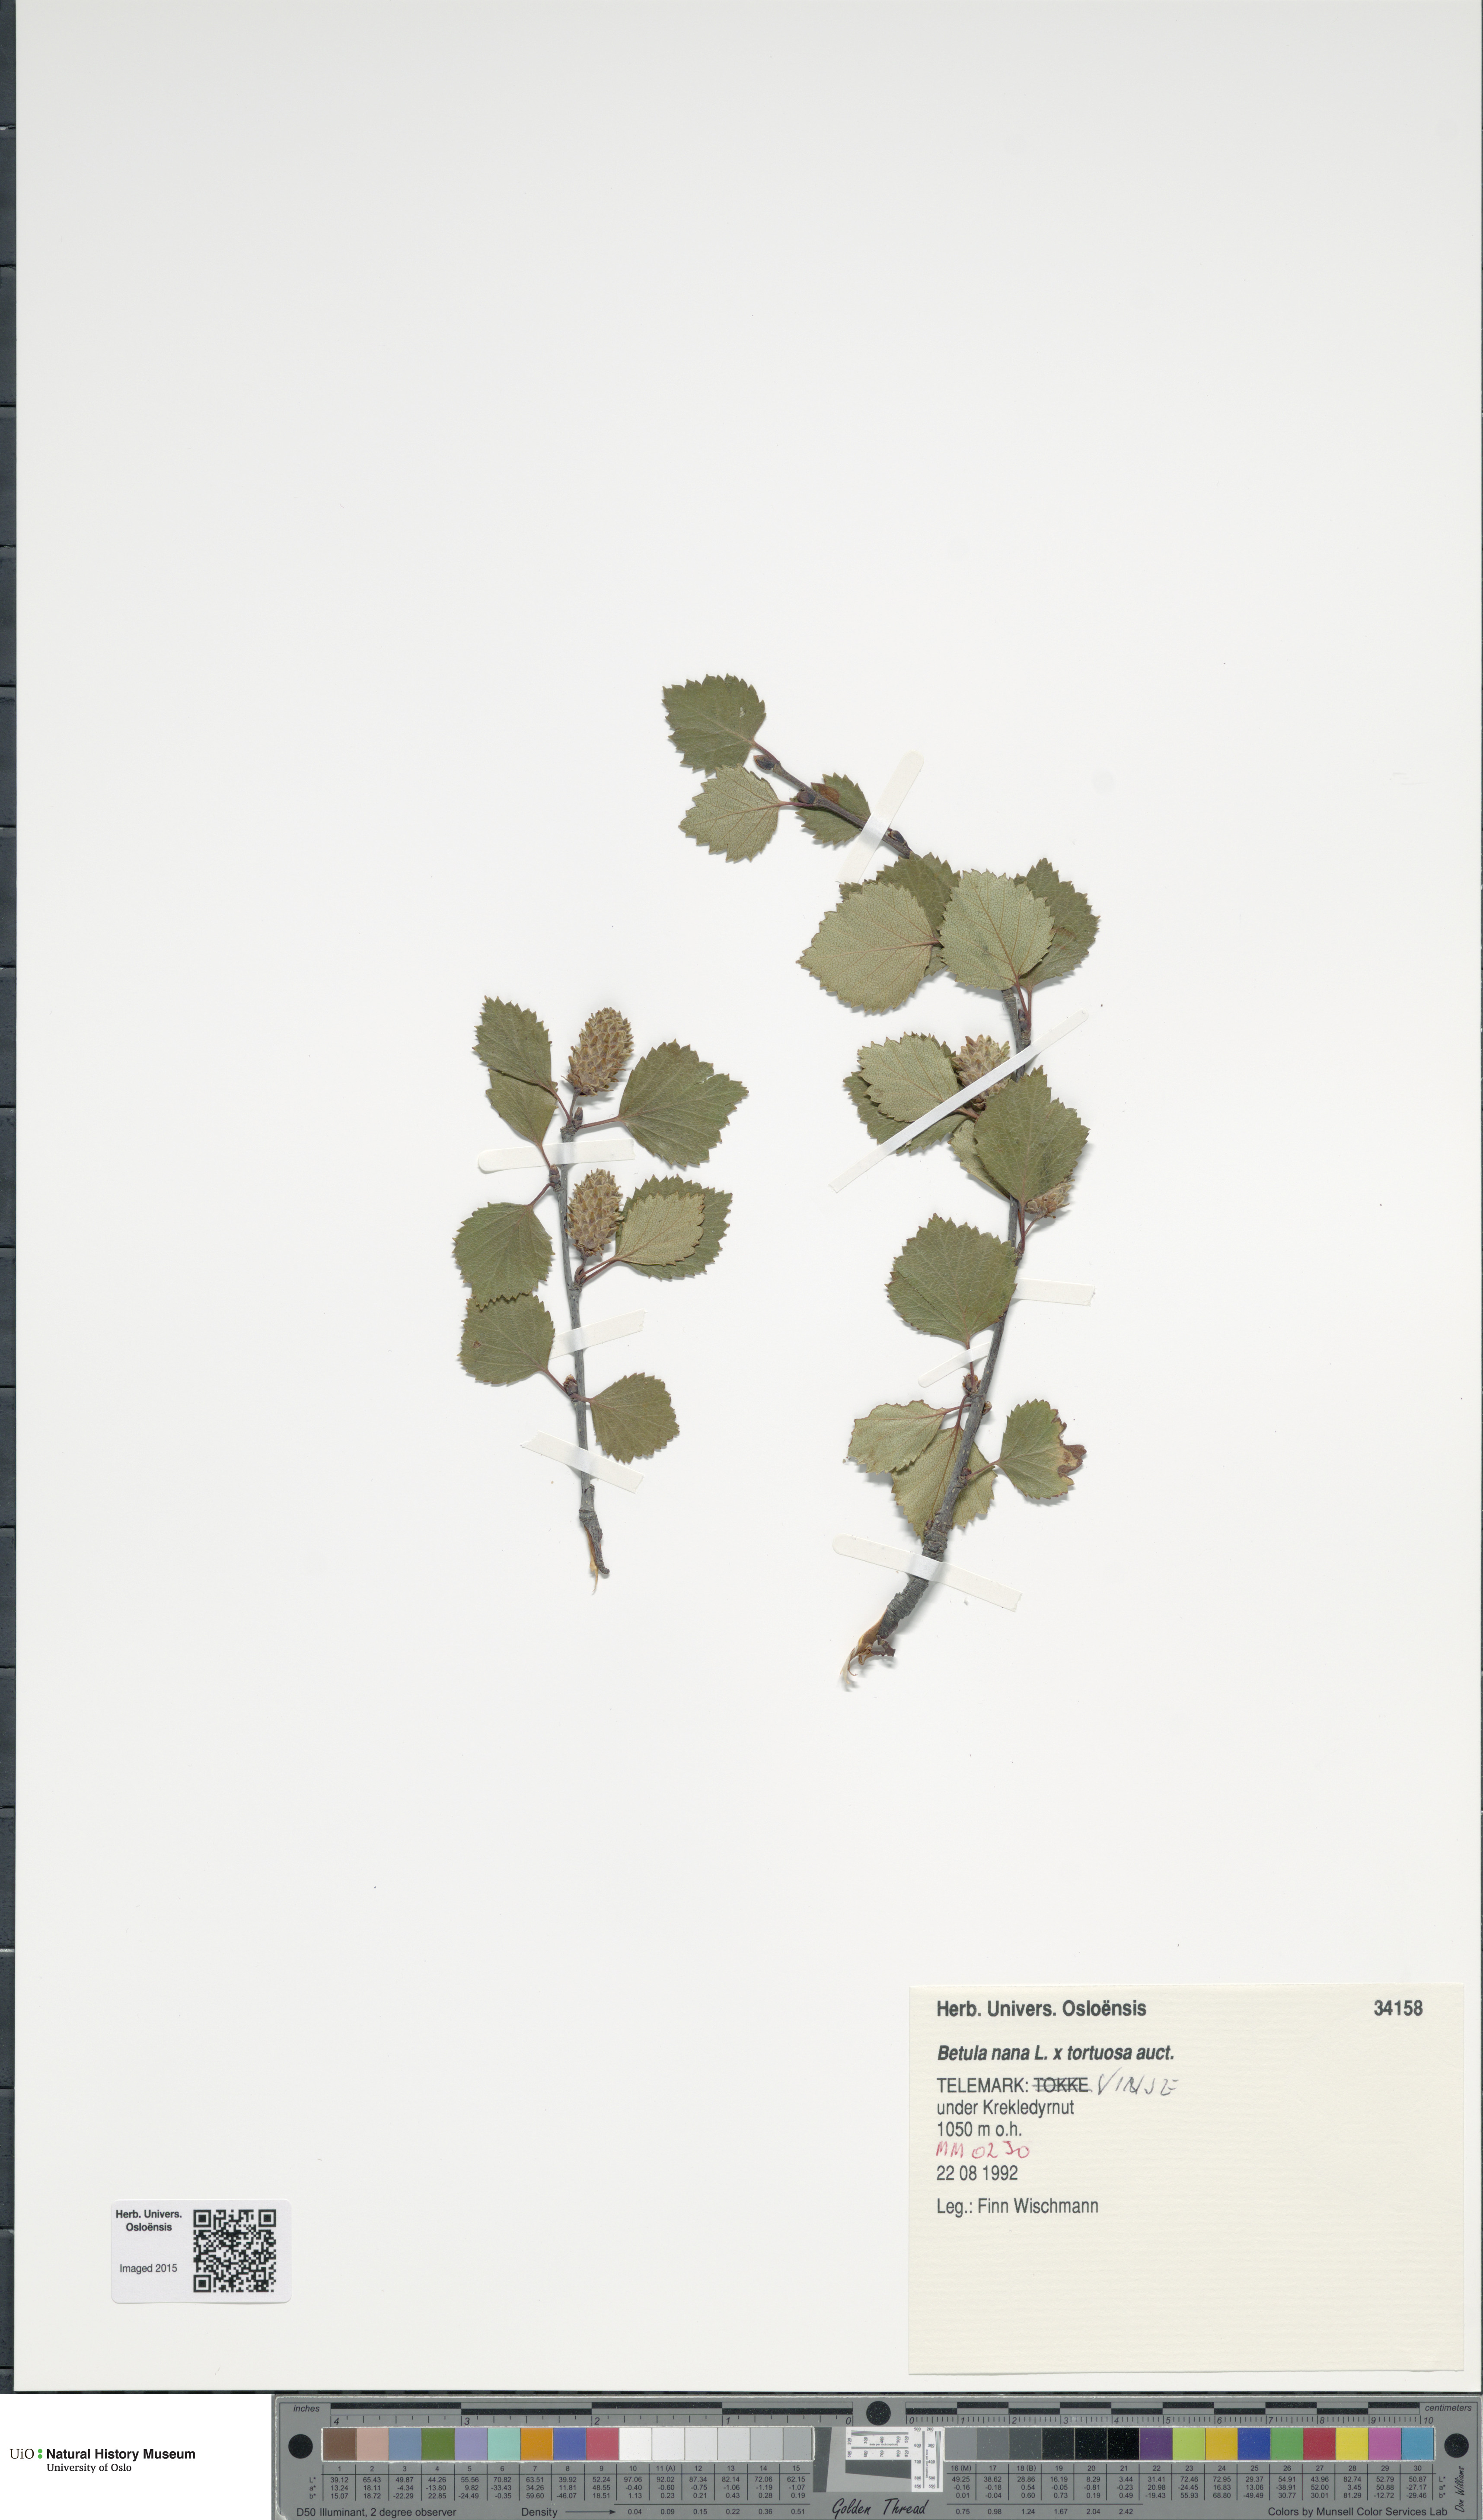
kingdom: Plantae
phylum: Tracheophyta
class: Magnoliopsida
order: Fagales
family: Betulaceae
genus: Betula
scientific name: Betula
